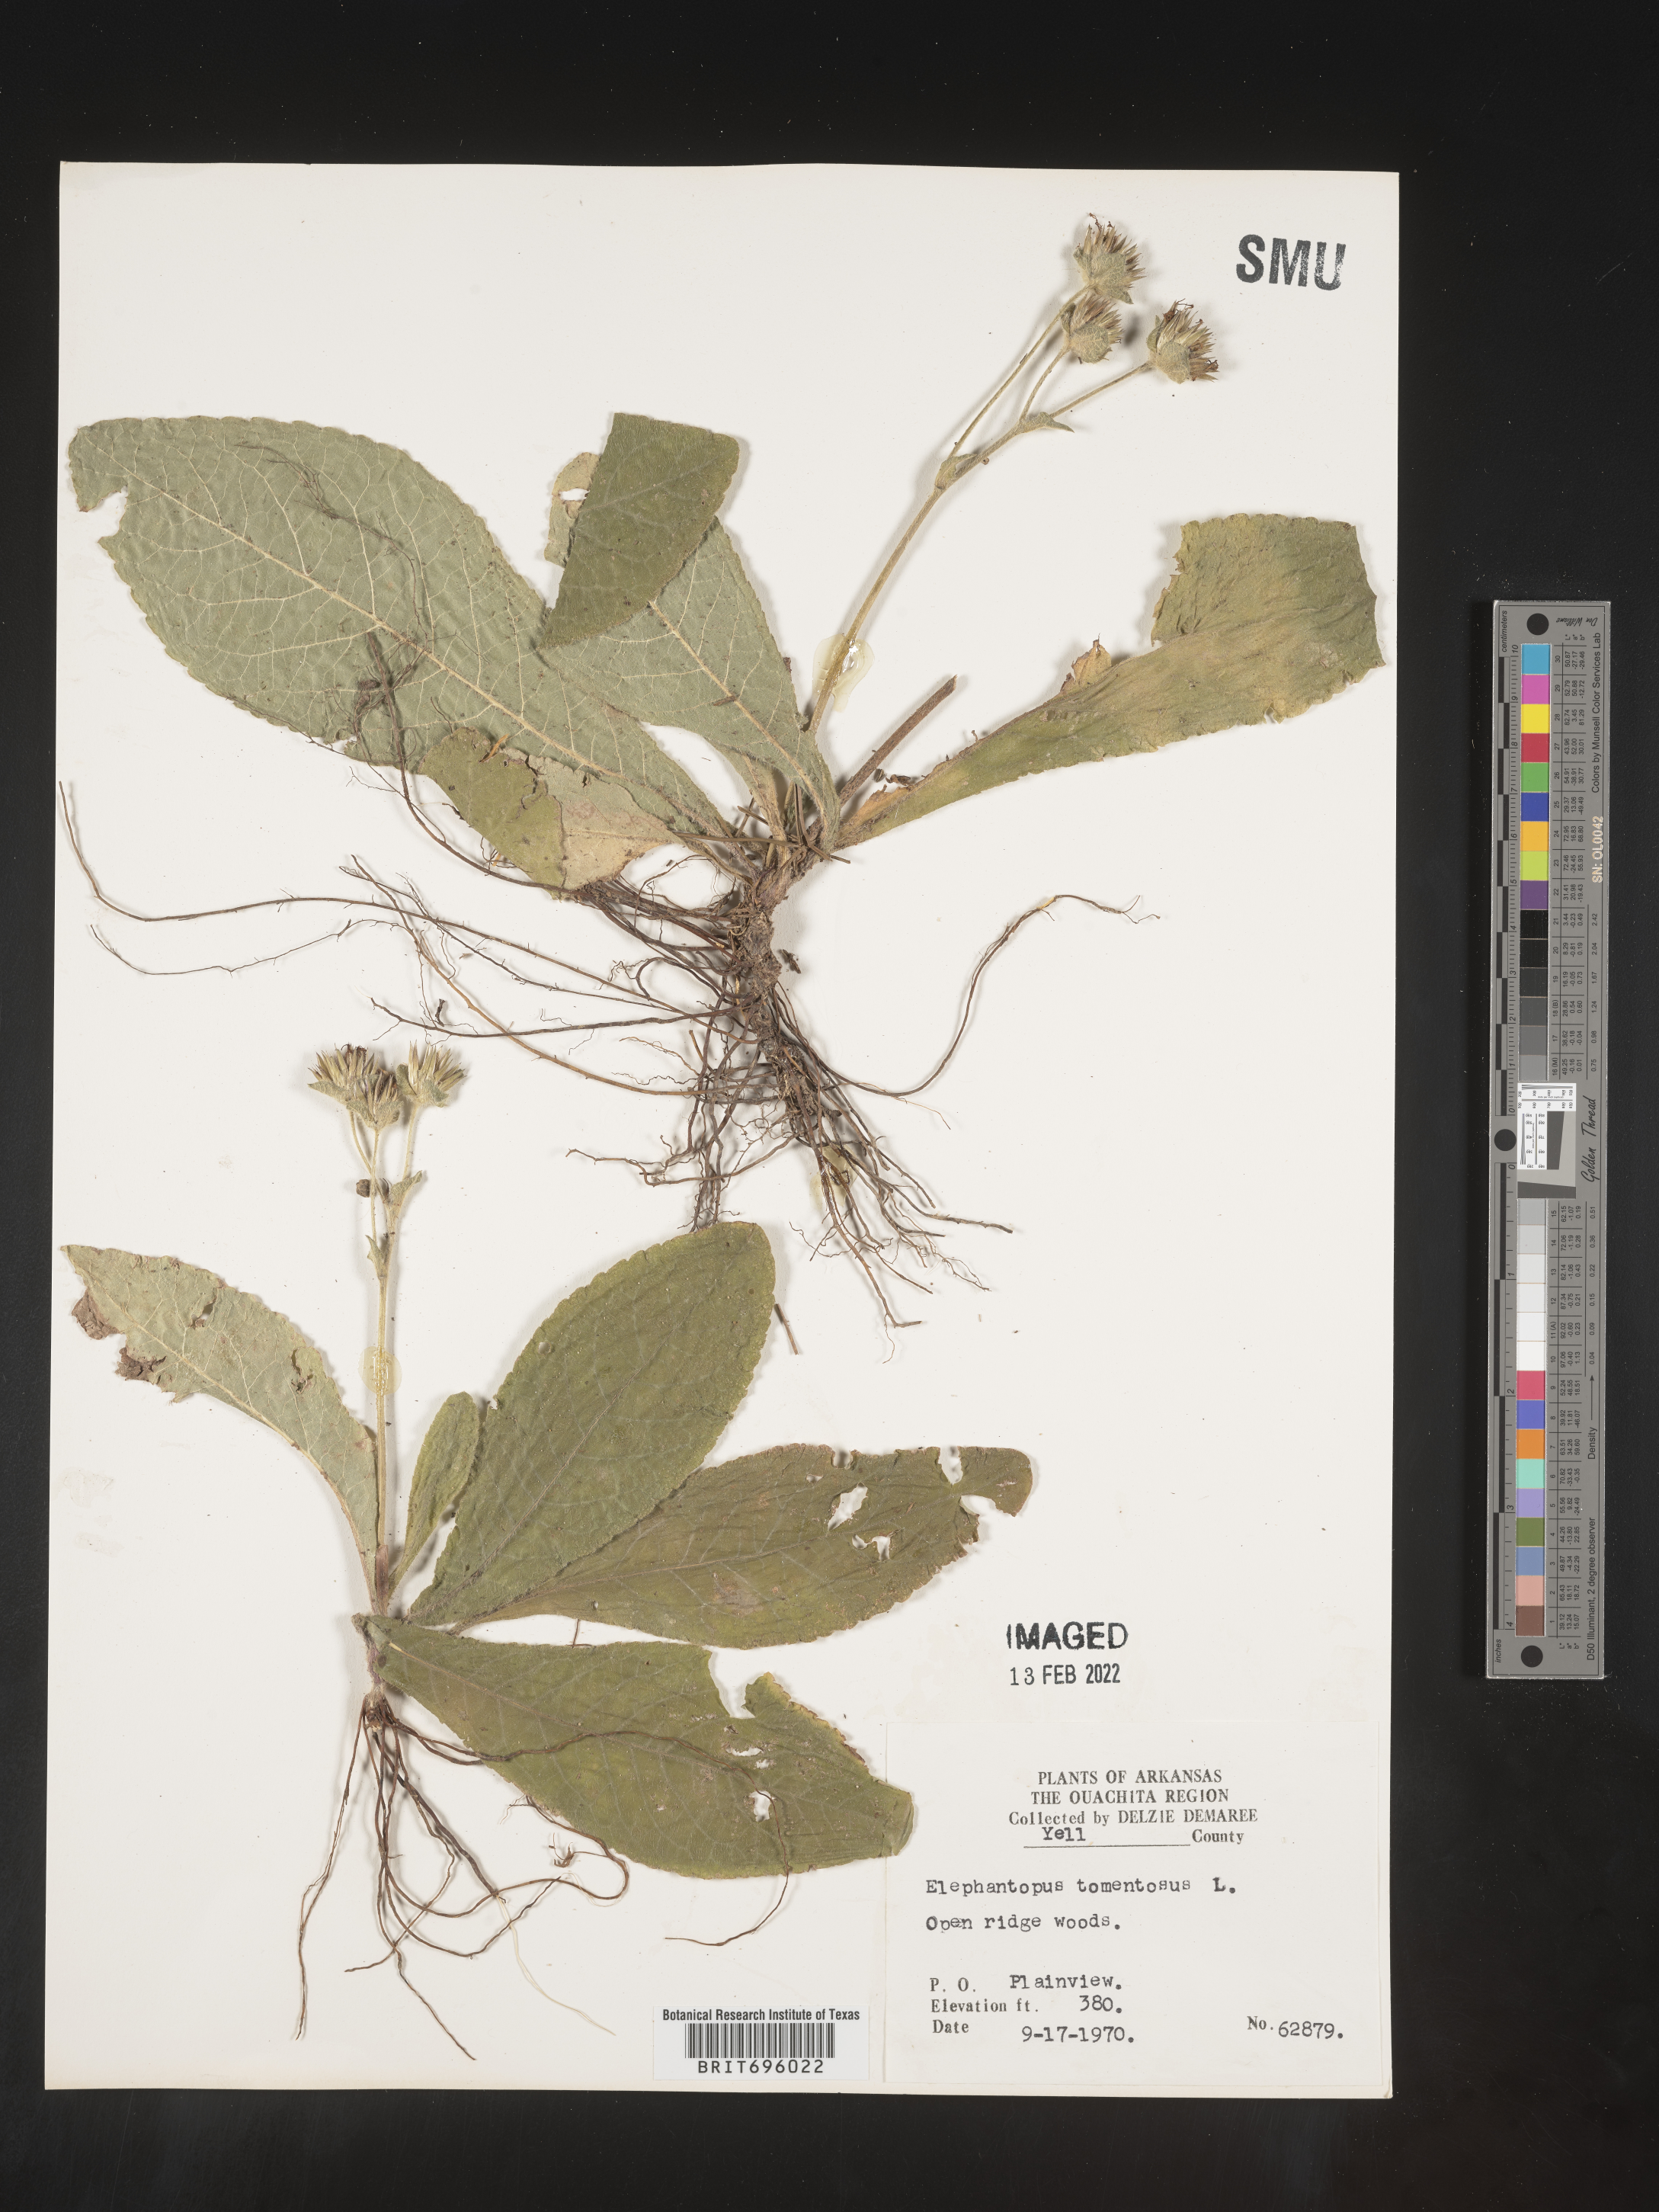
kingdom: Plantae
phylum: Tracheophyta
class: Magnoliopsida
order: Asterales
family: Asteraceae
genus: Elephantopus
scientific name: Elephantopus tomentosus
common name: Tobacco-weed
